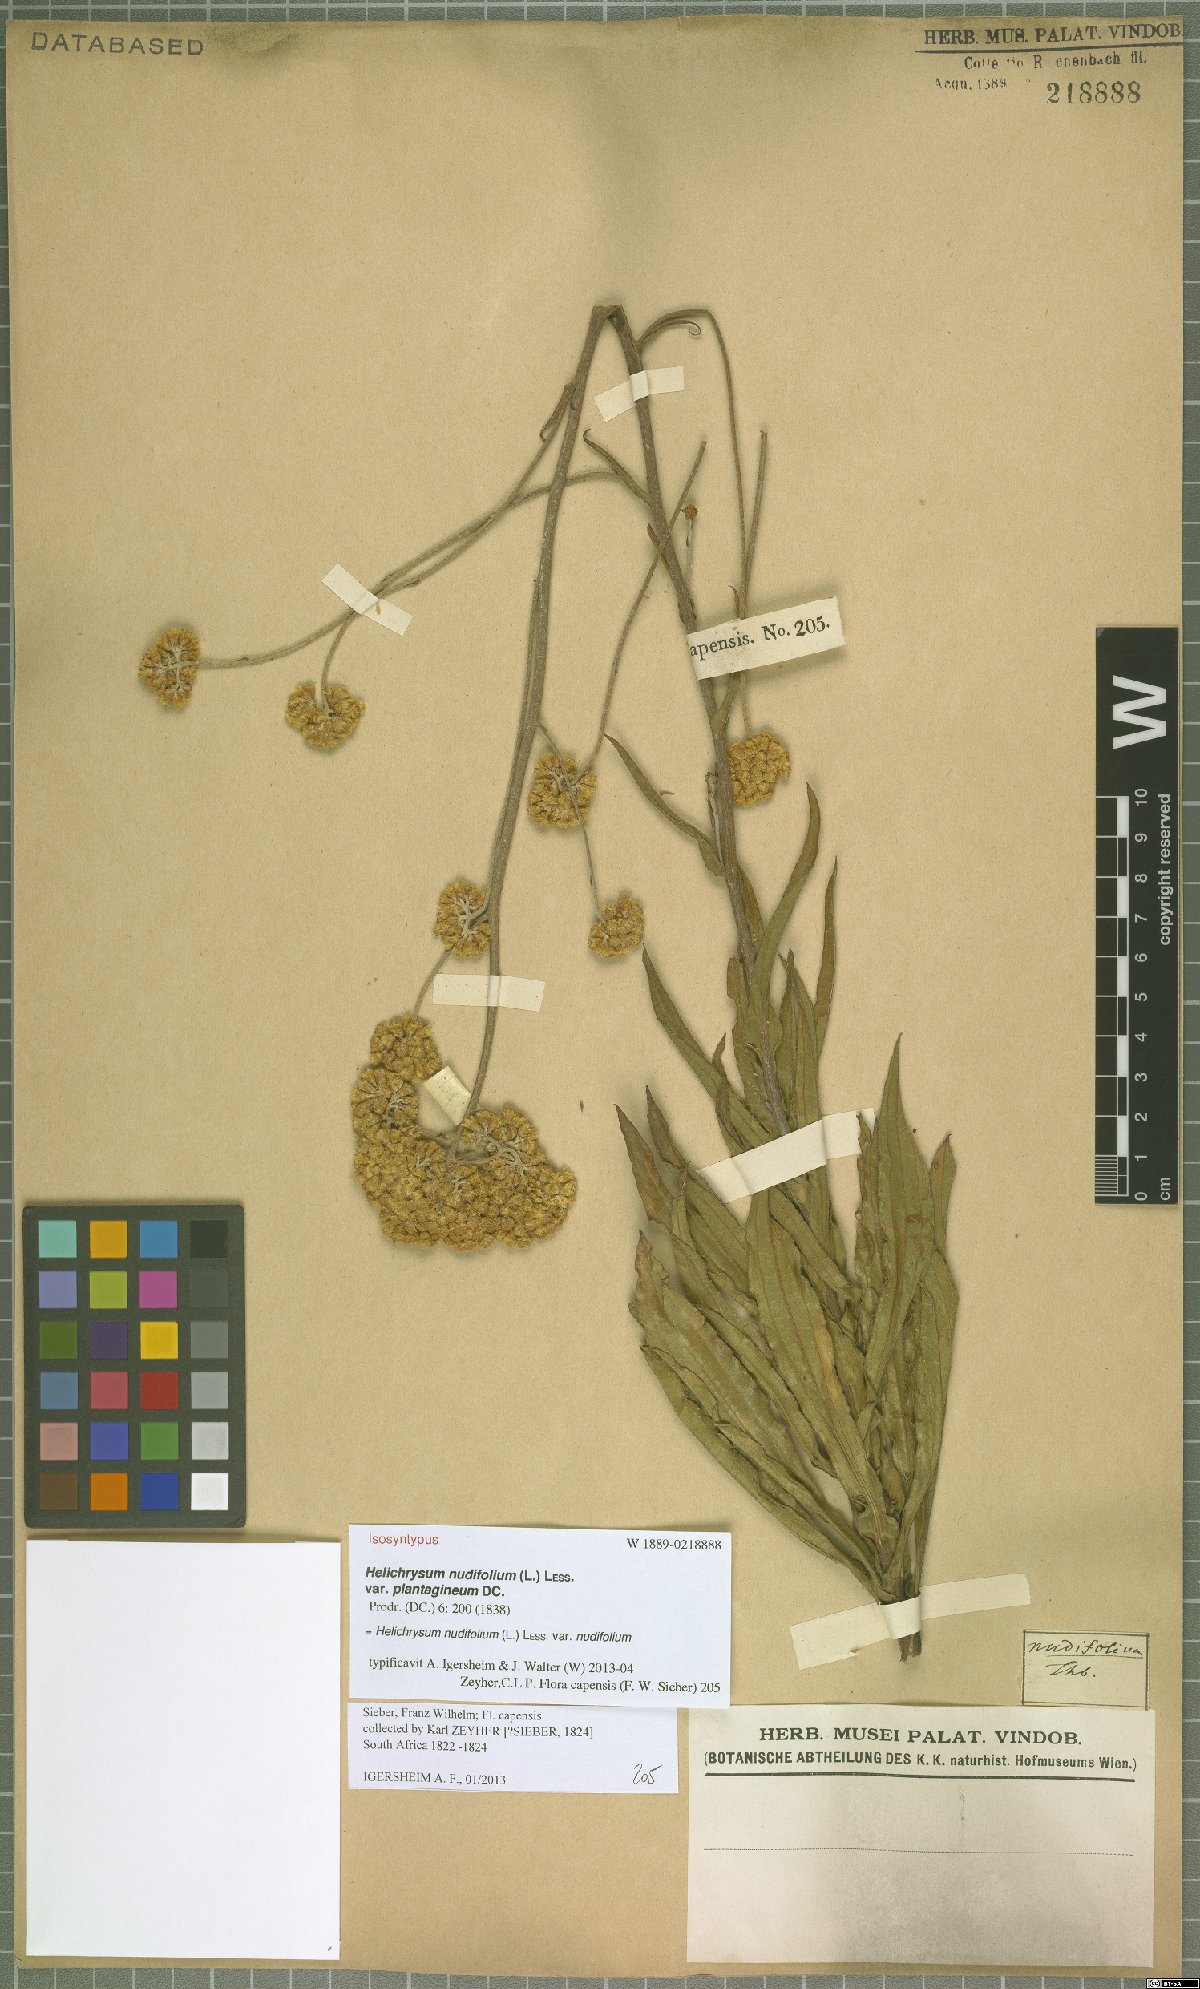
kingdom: Plantae
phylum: Tracheophyta
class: Magnoliopsida
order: Asterales
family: Asteraceae
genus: Helichrysum
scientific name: Helichrysum nudifolium
